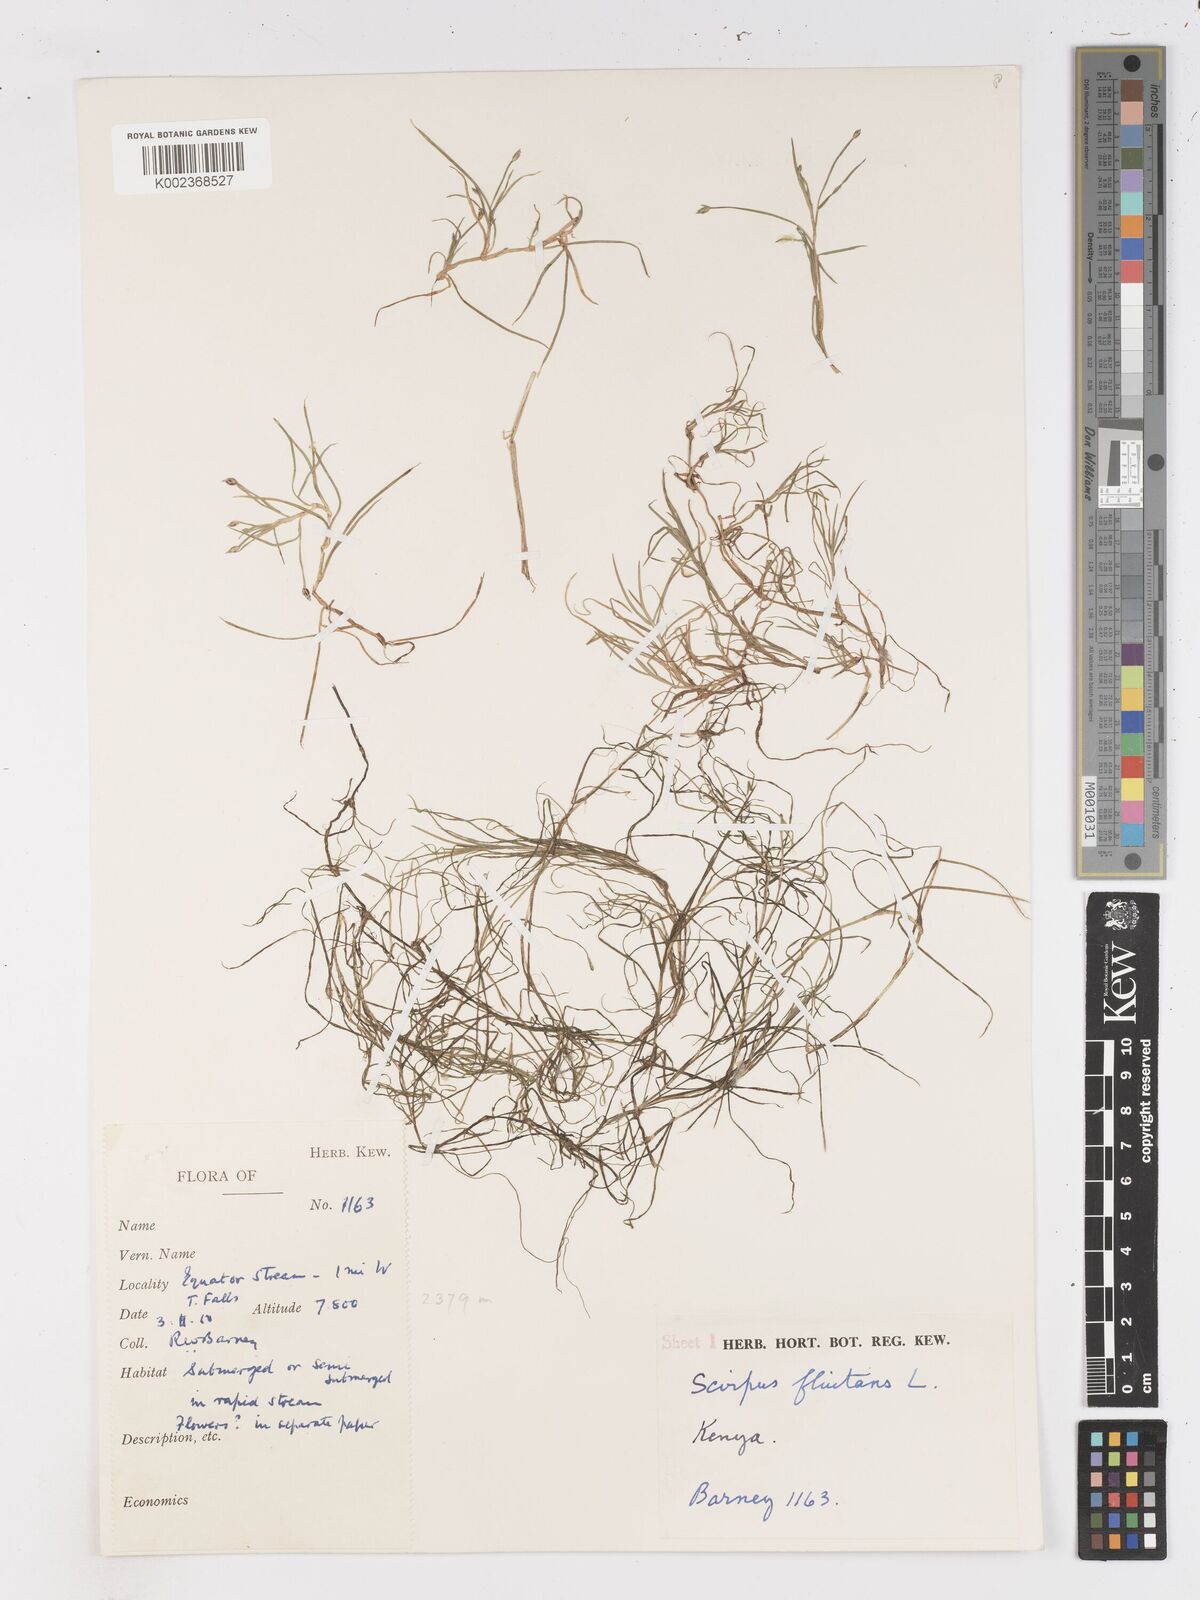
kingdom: Plantae
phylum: Tracheophyta
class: Liliopsida
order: Poales
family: Cyperaceae
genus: Isolepis
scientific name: Isolepis fluitans
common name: Floating club-rush
